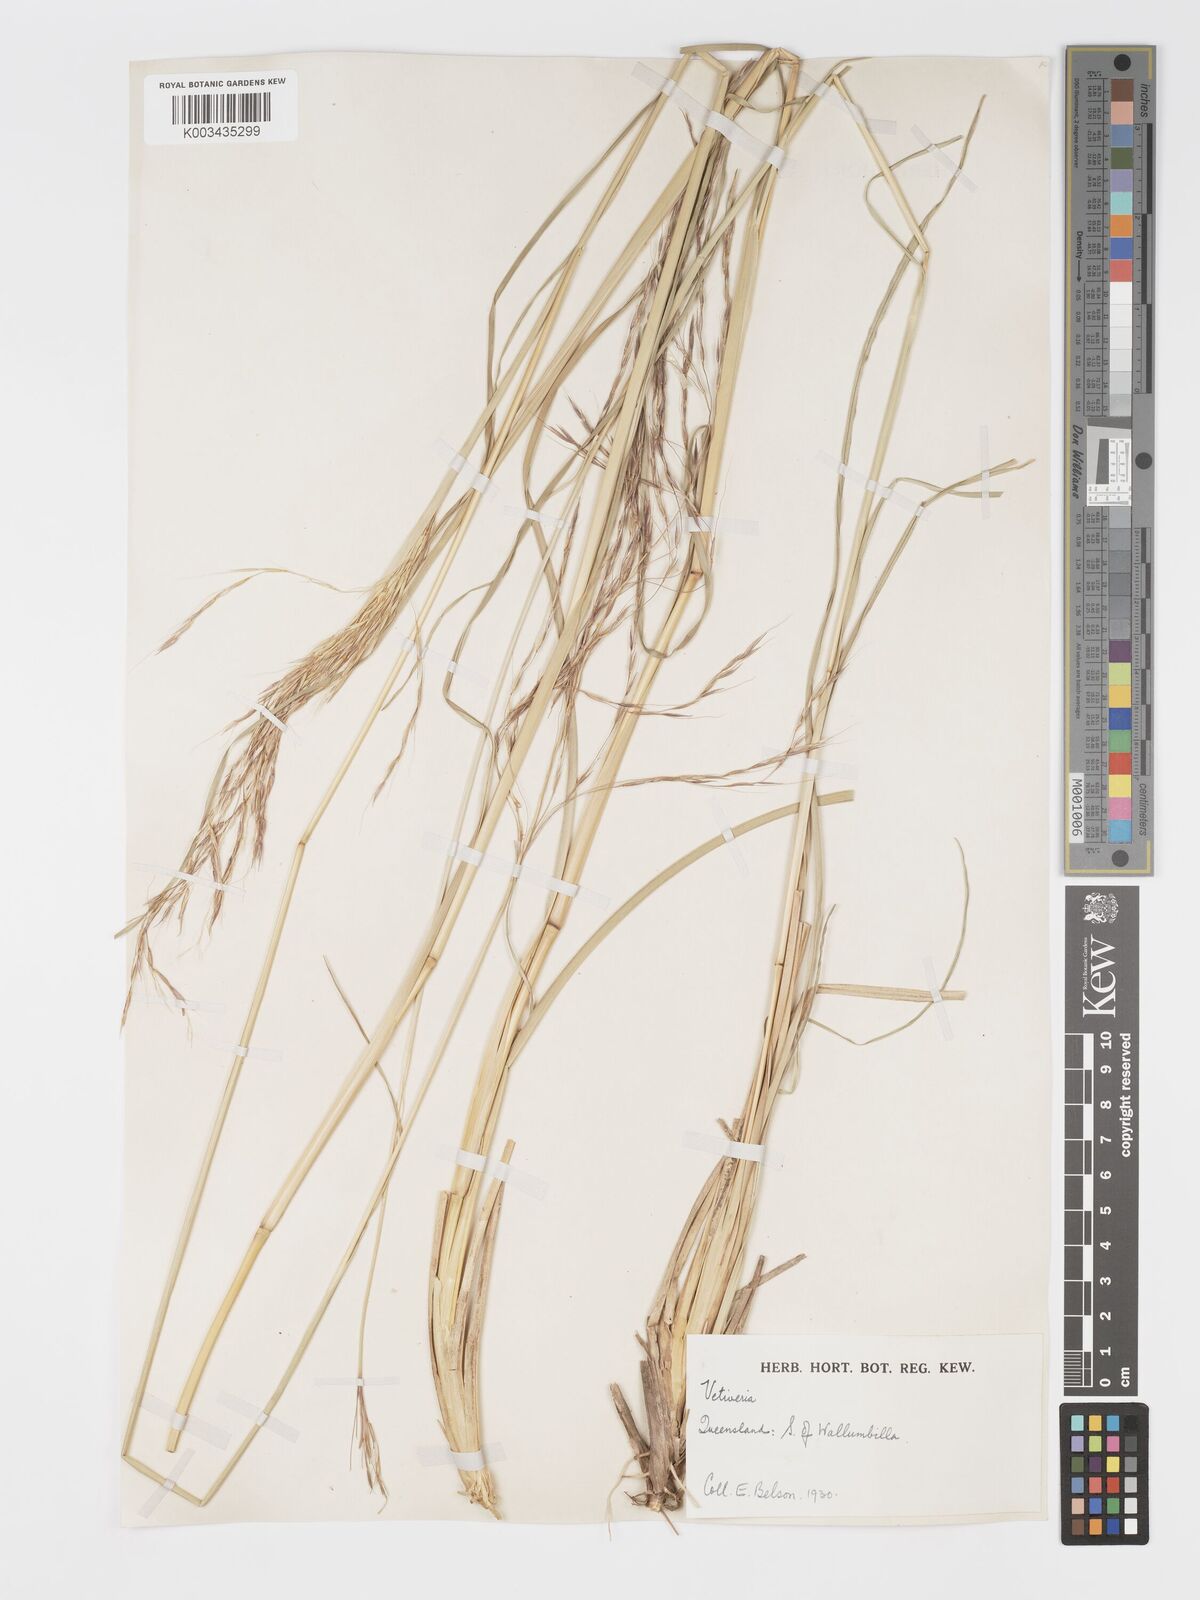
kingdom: Plantae
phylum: Tracheophyta
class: Liliopsida
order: Poales
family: Poaceae
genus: Chrysopogon
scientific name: Chrysopogon filipes
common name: Australian vetiver
